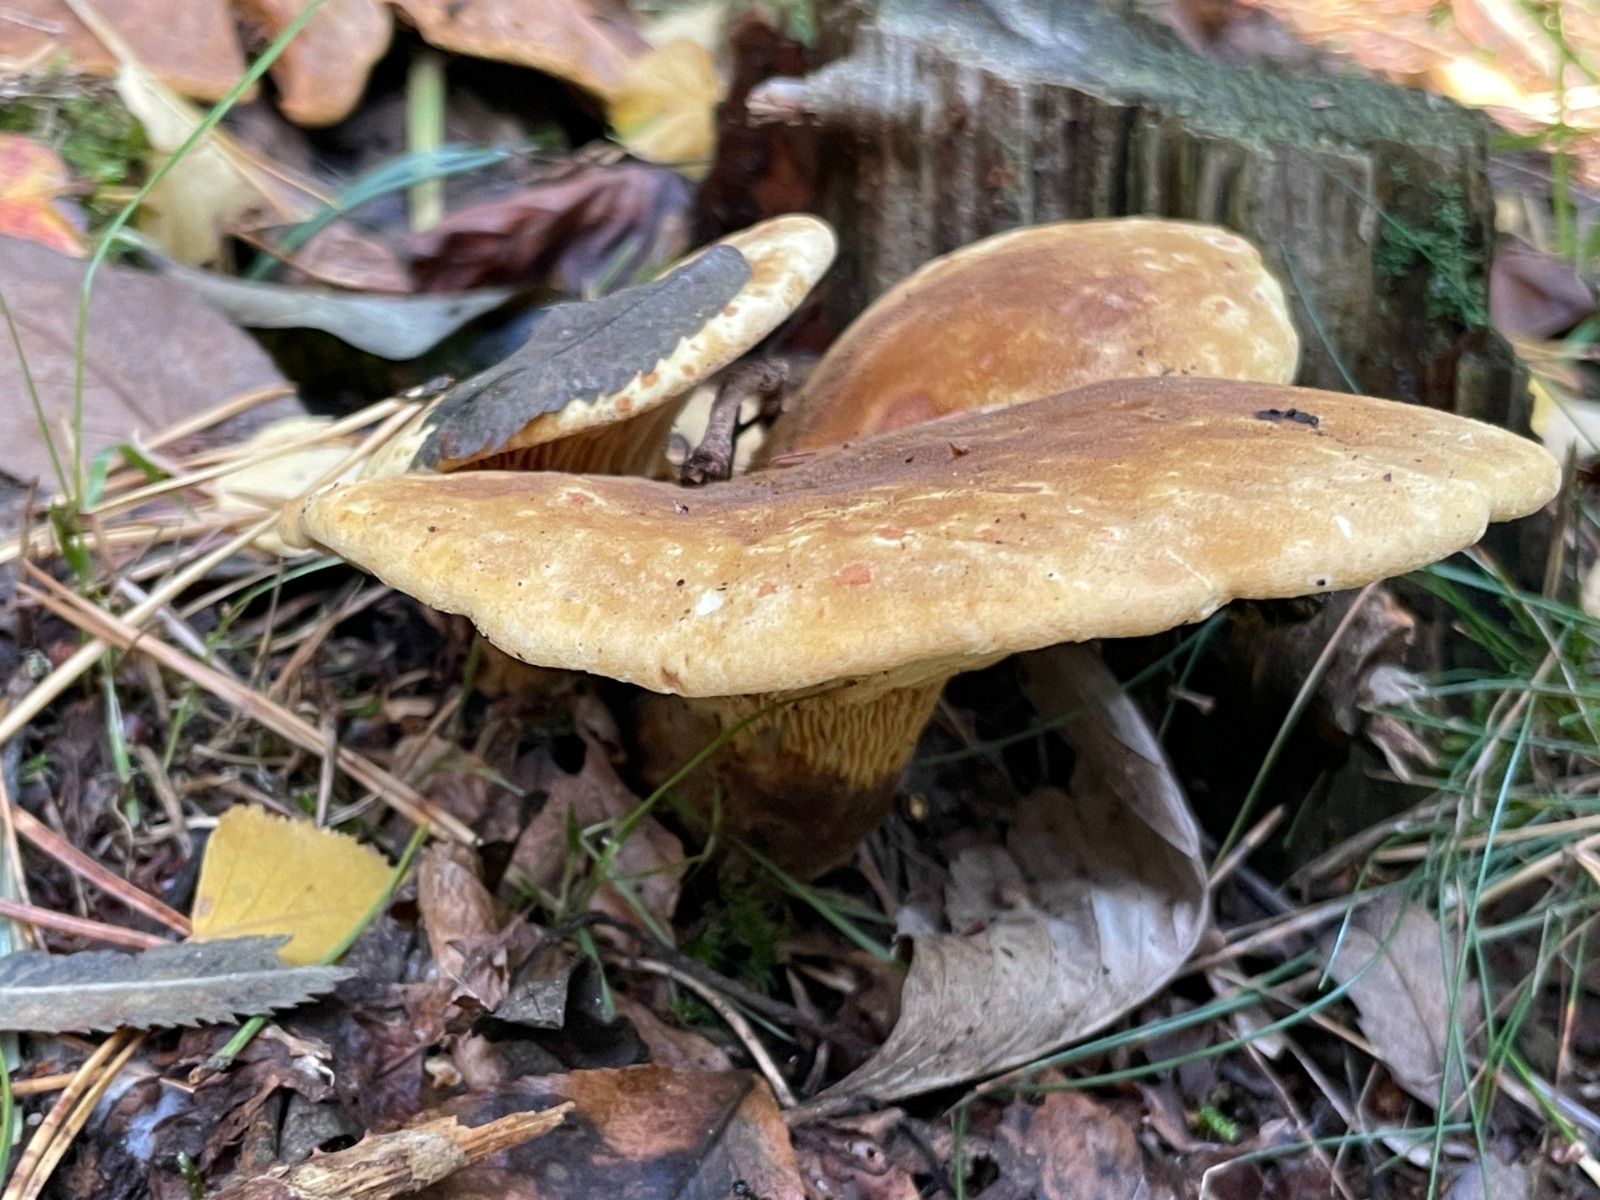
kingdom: Fungi
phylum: Basidiomycota
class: Agaricomycetes
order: Boletales
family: Tapinellaceae
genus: Tapinella
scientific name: Tapinella atrotomentosa
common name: sortfiltet viftesvamp
